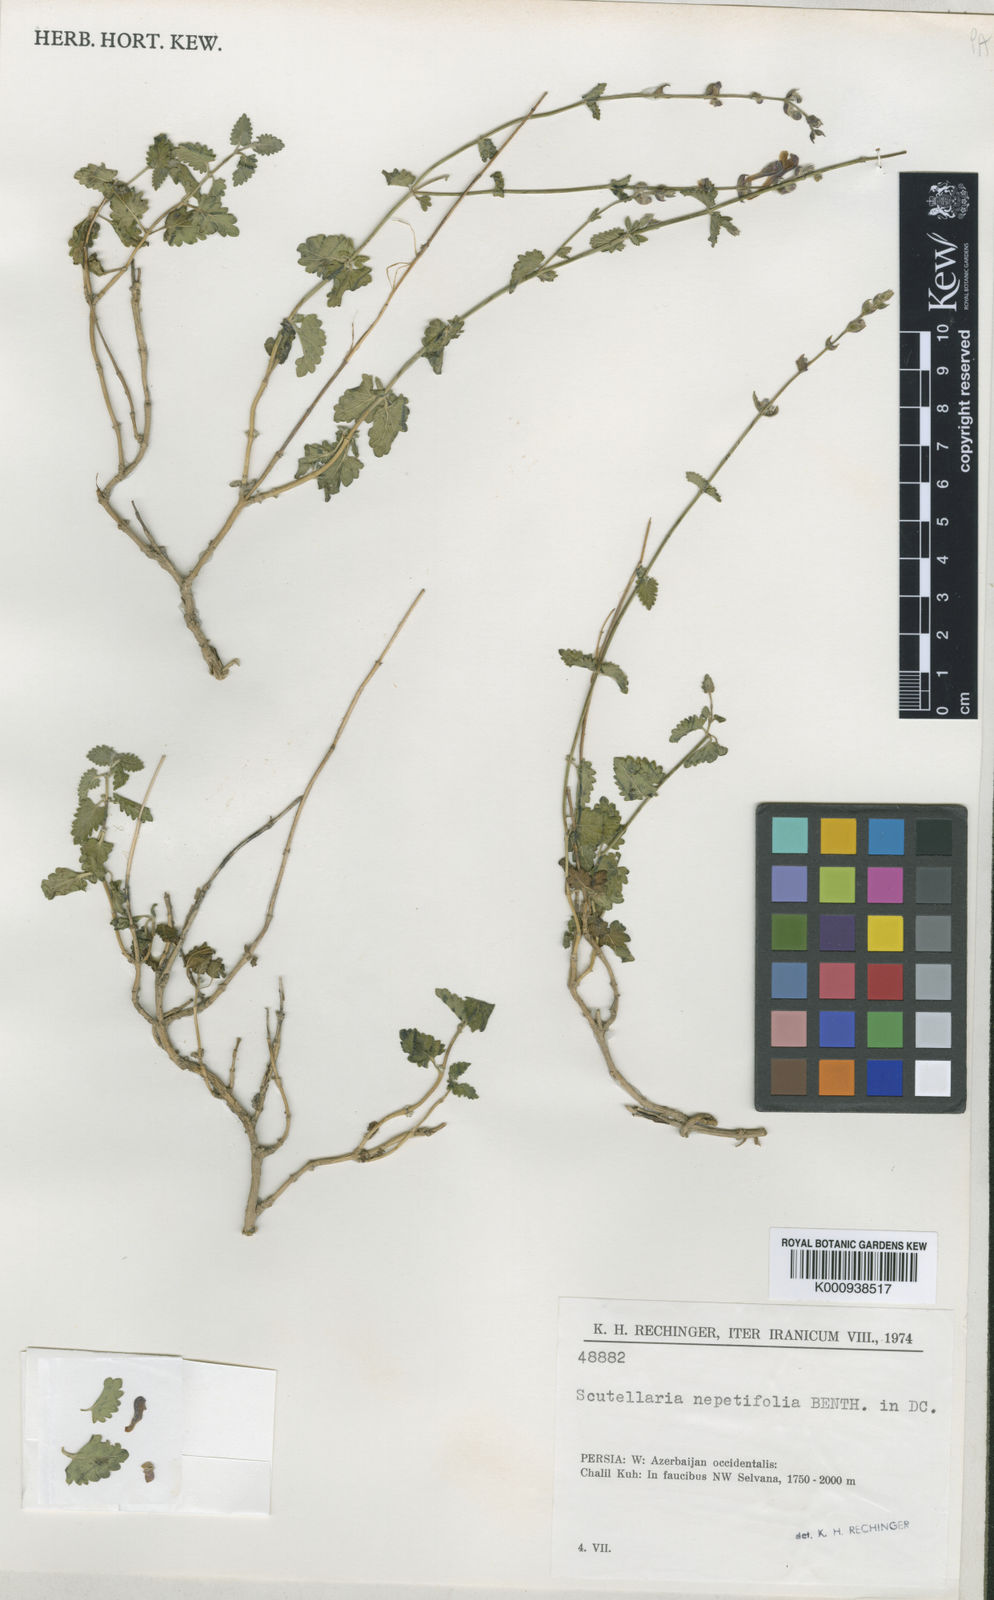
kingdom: Plantae
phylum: Tracheophyta
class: Magnoliopsida
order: Lamiales
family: Lamiaceae
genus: Scutellaria
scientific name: Scutellaria nepetifolia
